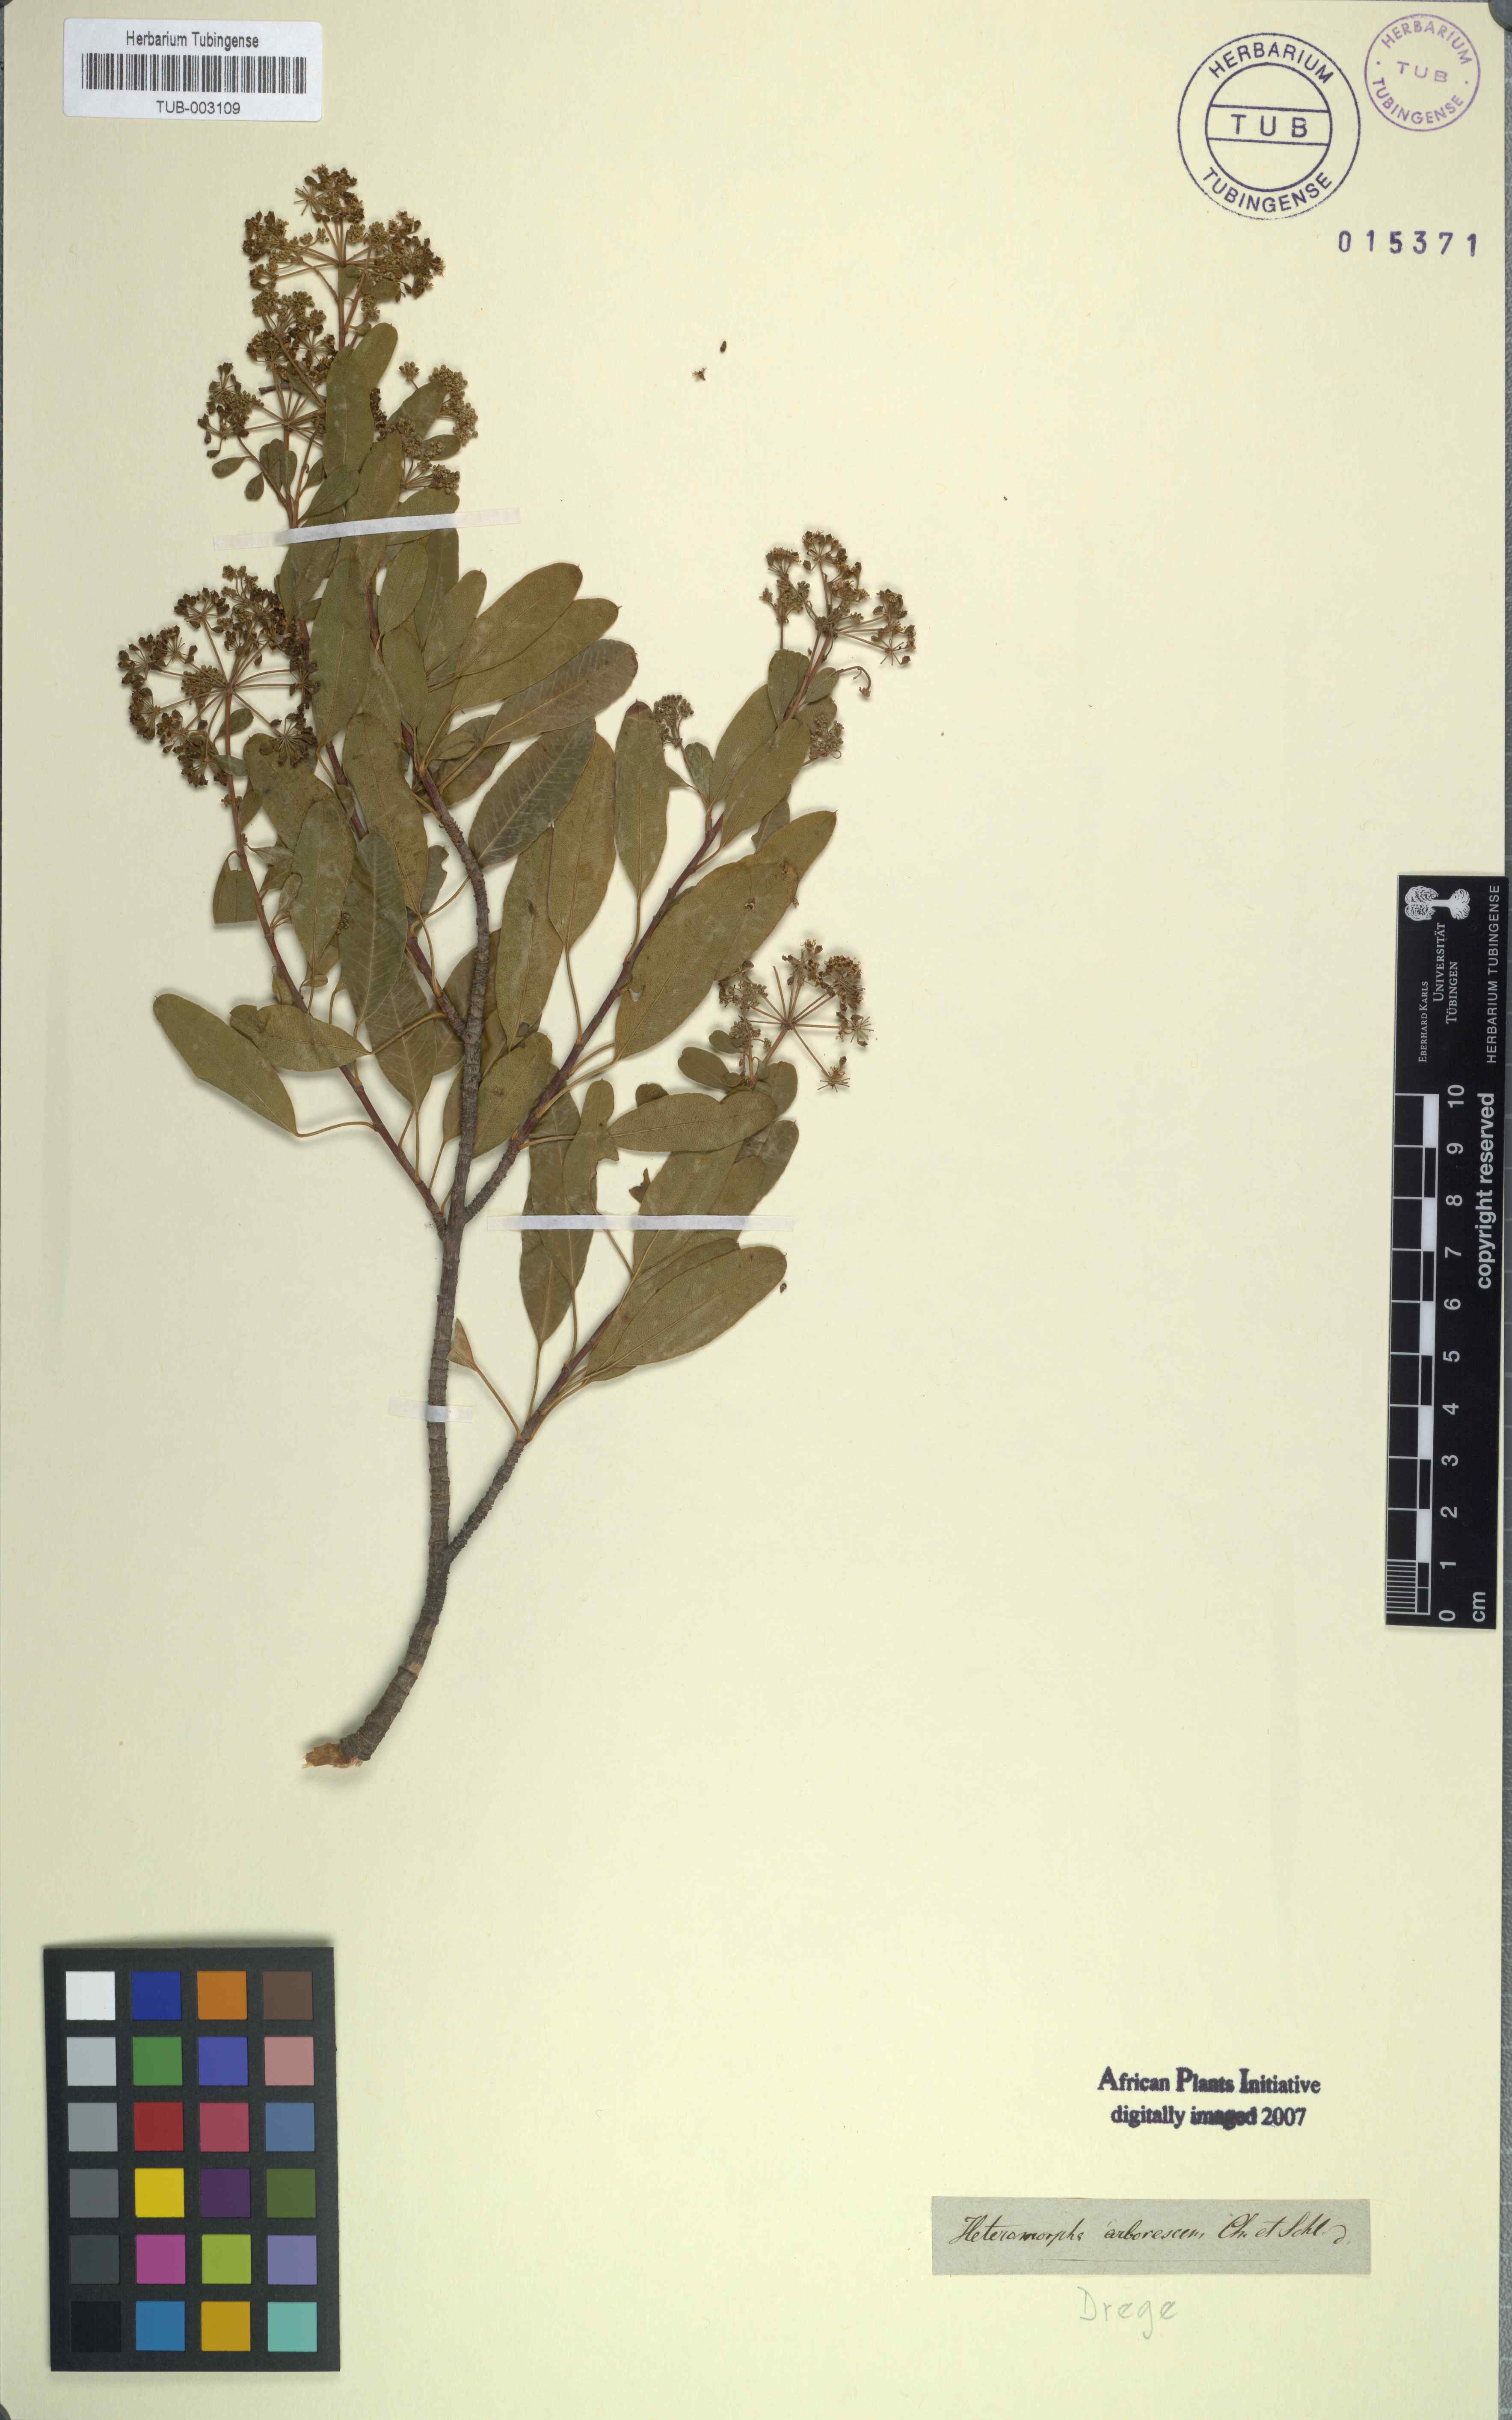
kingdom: Plantae
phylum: Tracheophyta
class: Magnoliopsida
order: Apiales
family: Apiaceae
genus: Heteromorpha
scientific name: Heteromorpha arborescens
